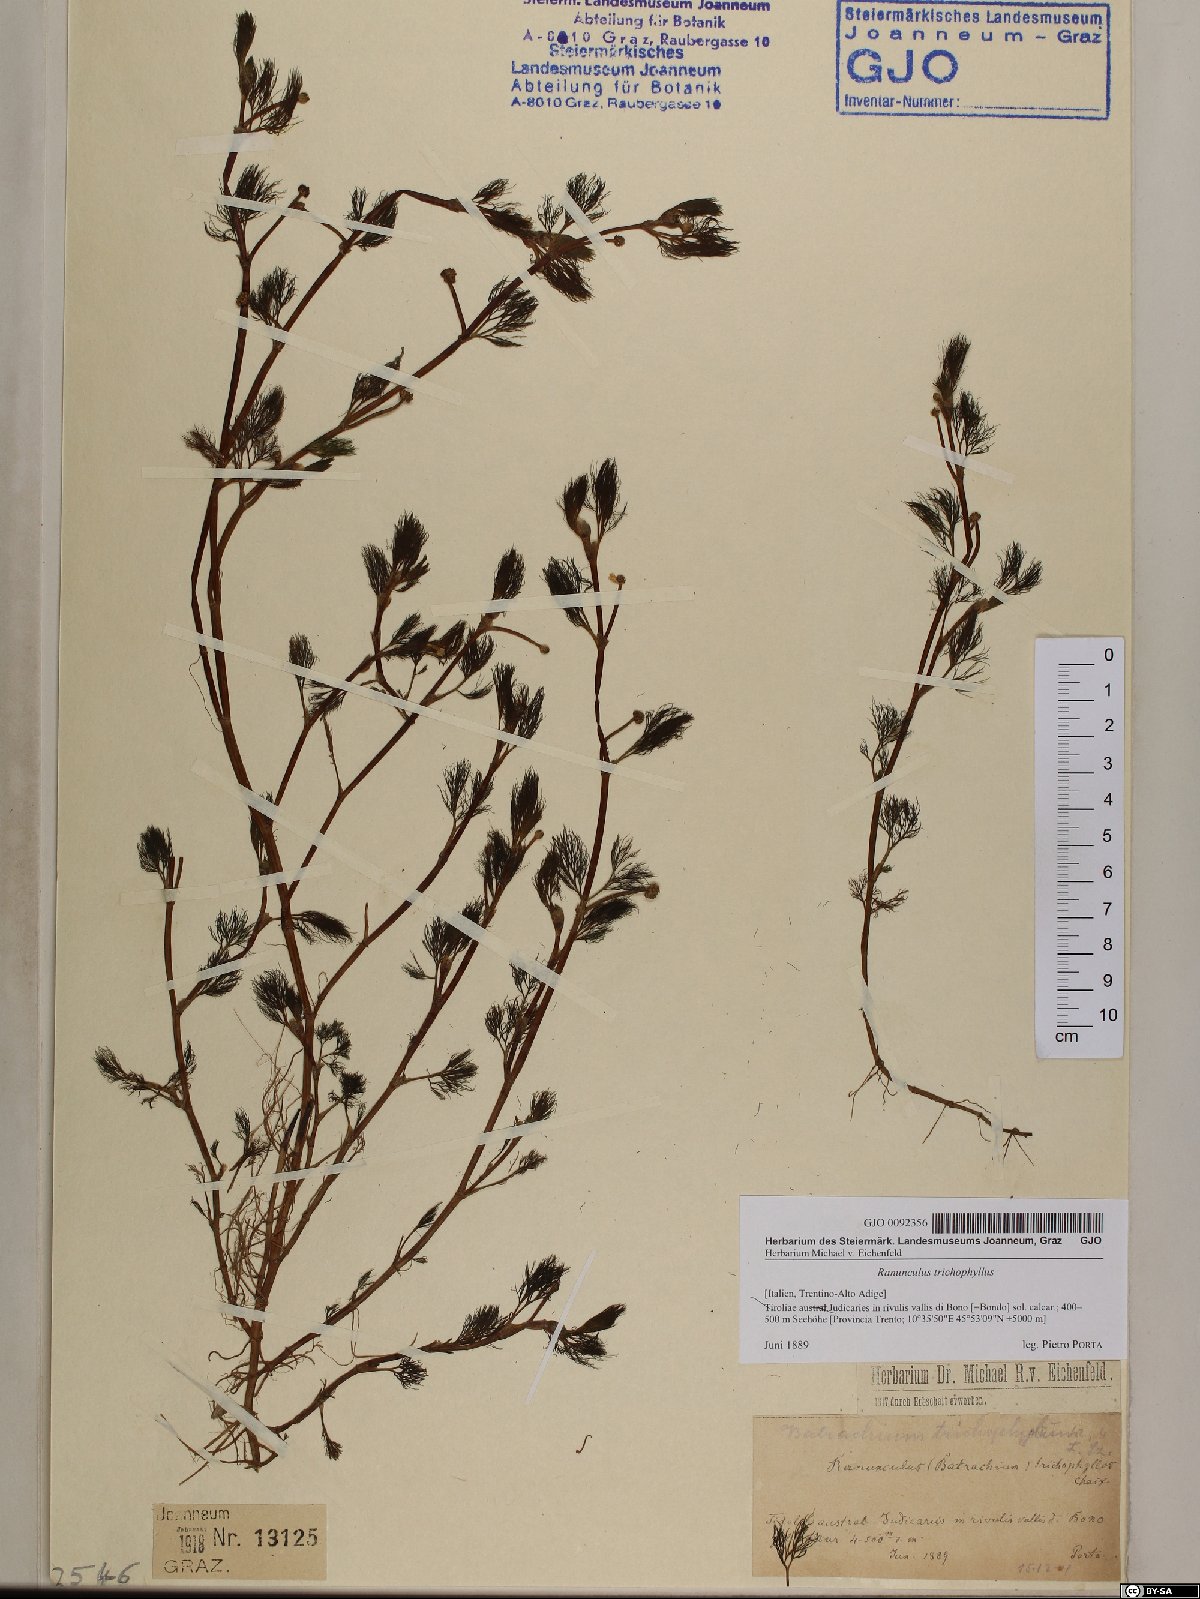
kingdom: Plantae
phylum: Tracheophyta
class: Magnoliopsida
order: Ranunculales
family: Ranunculaceae
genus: Ranunculus
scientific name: Ranunculus trichophyllus
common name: Thread-leaved water-crowfoot
